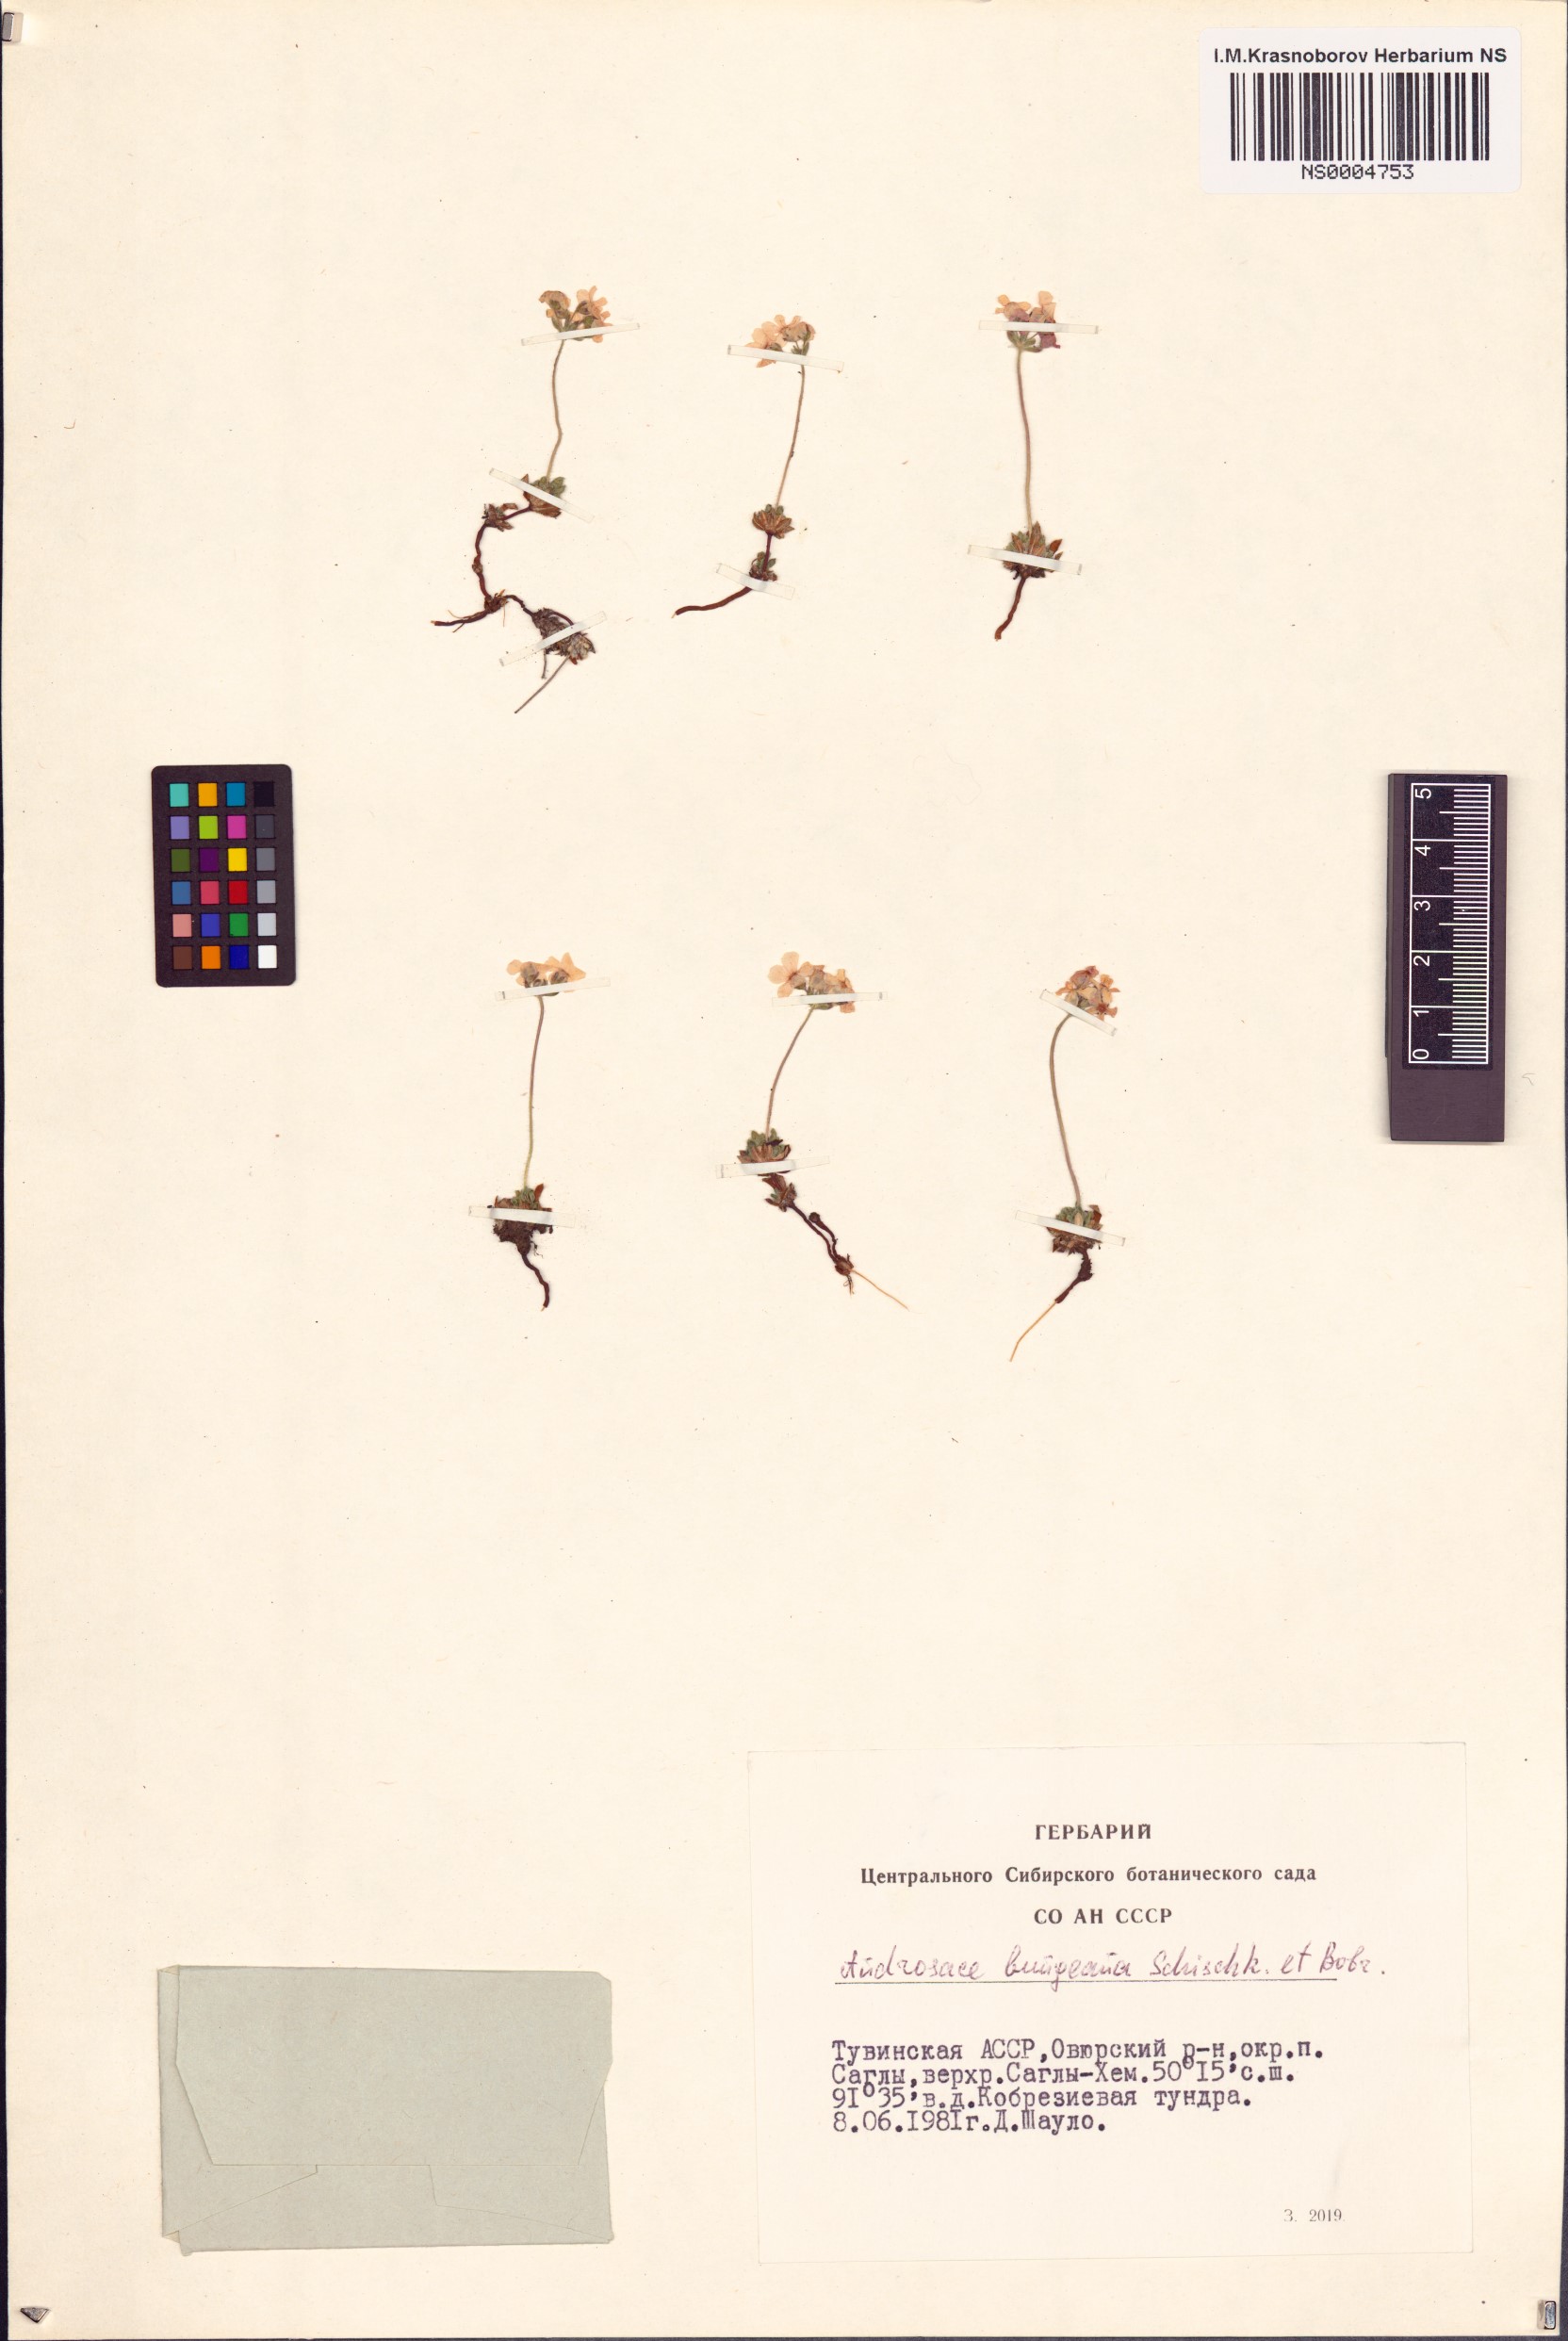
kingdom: Plantae
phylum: Tracheophyta
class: Magnoliopsida
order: Ericales
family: Primulaceae
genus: Androsace
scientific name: Androsace bungeana
